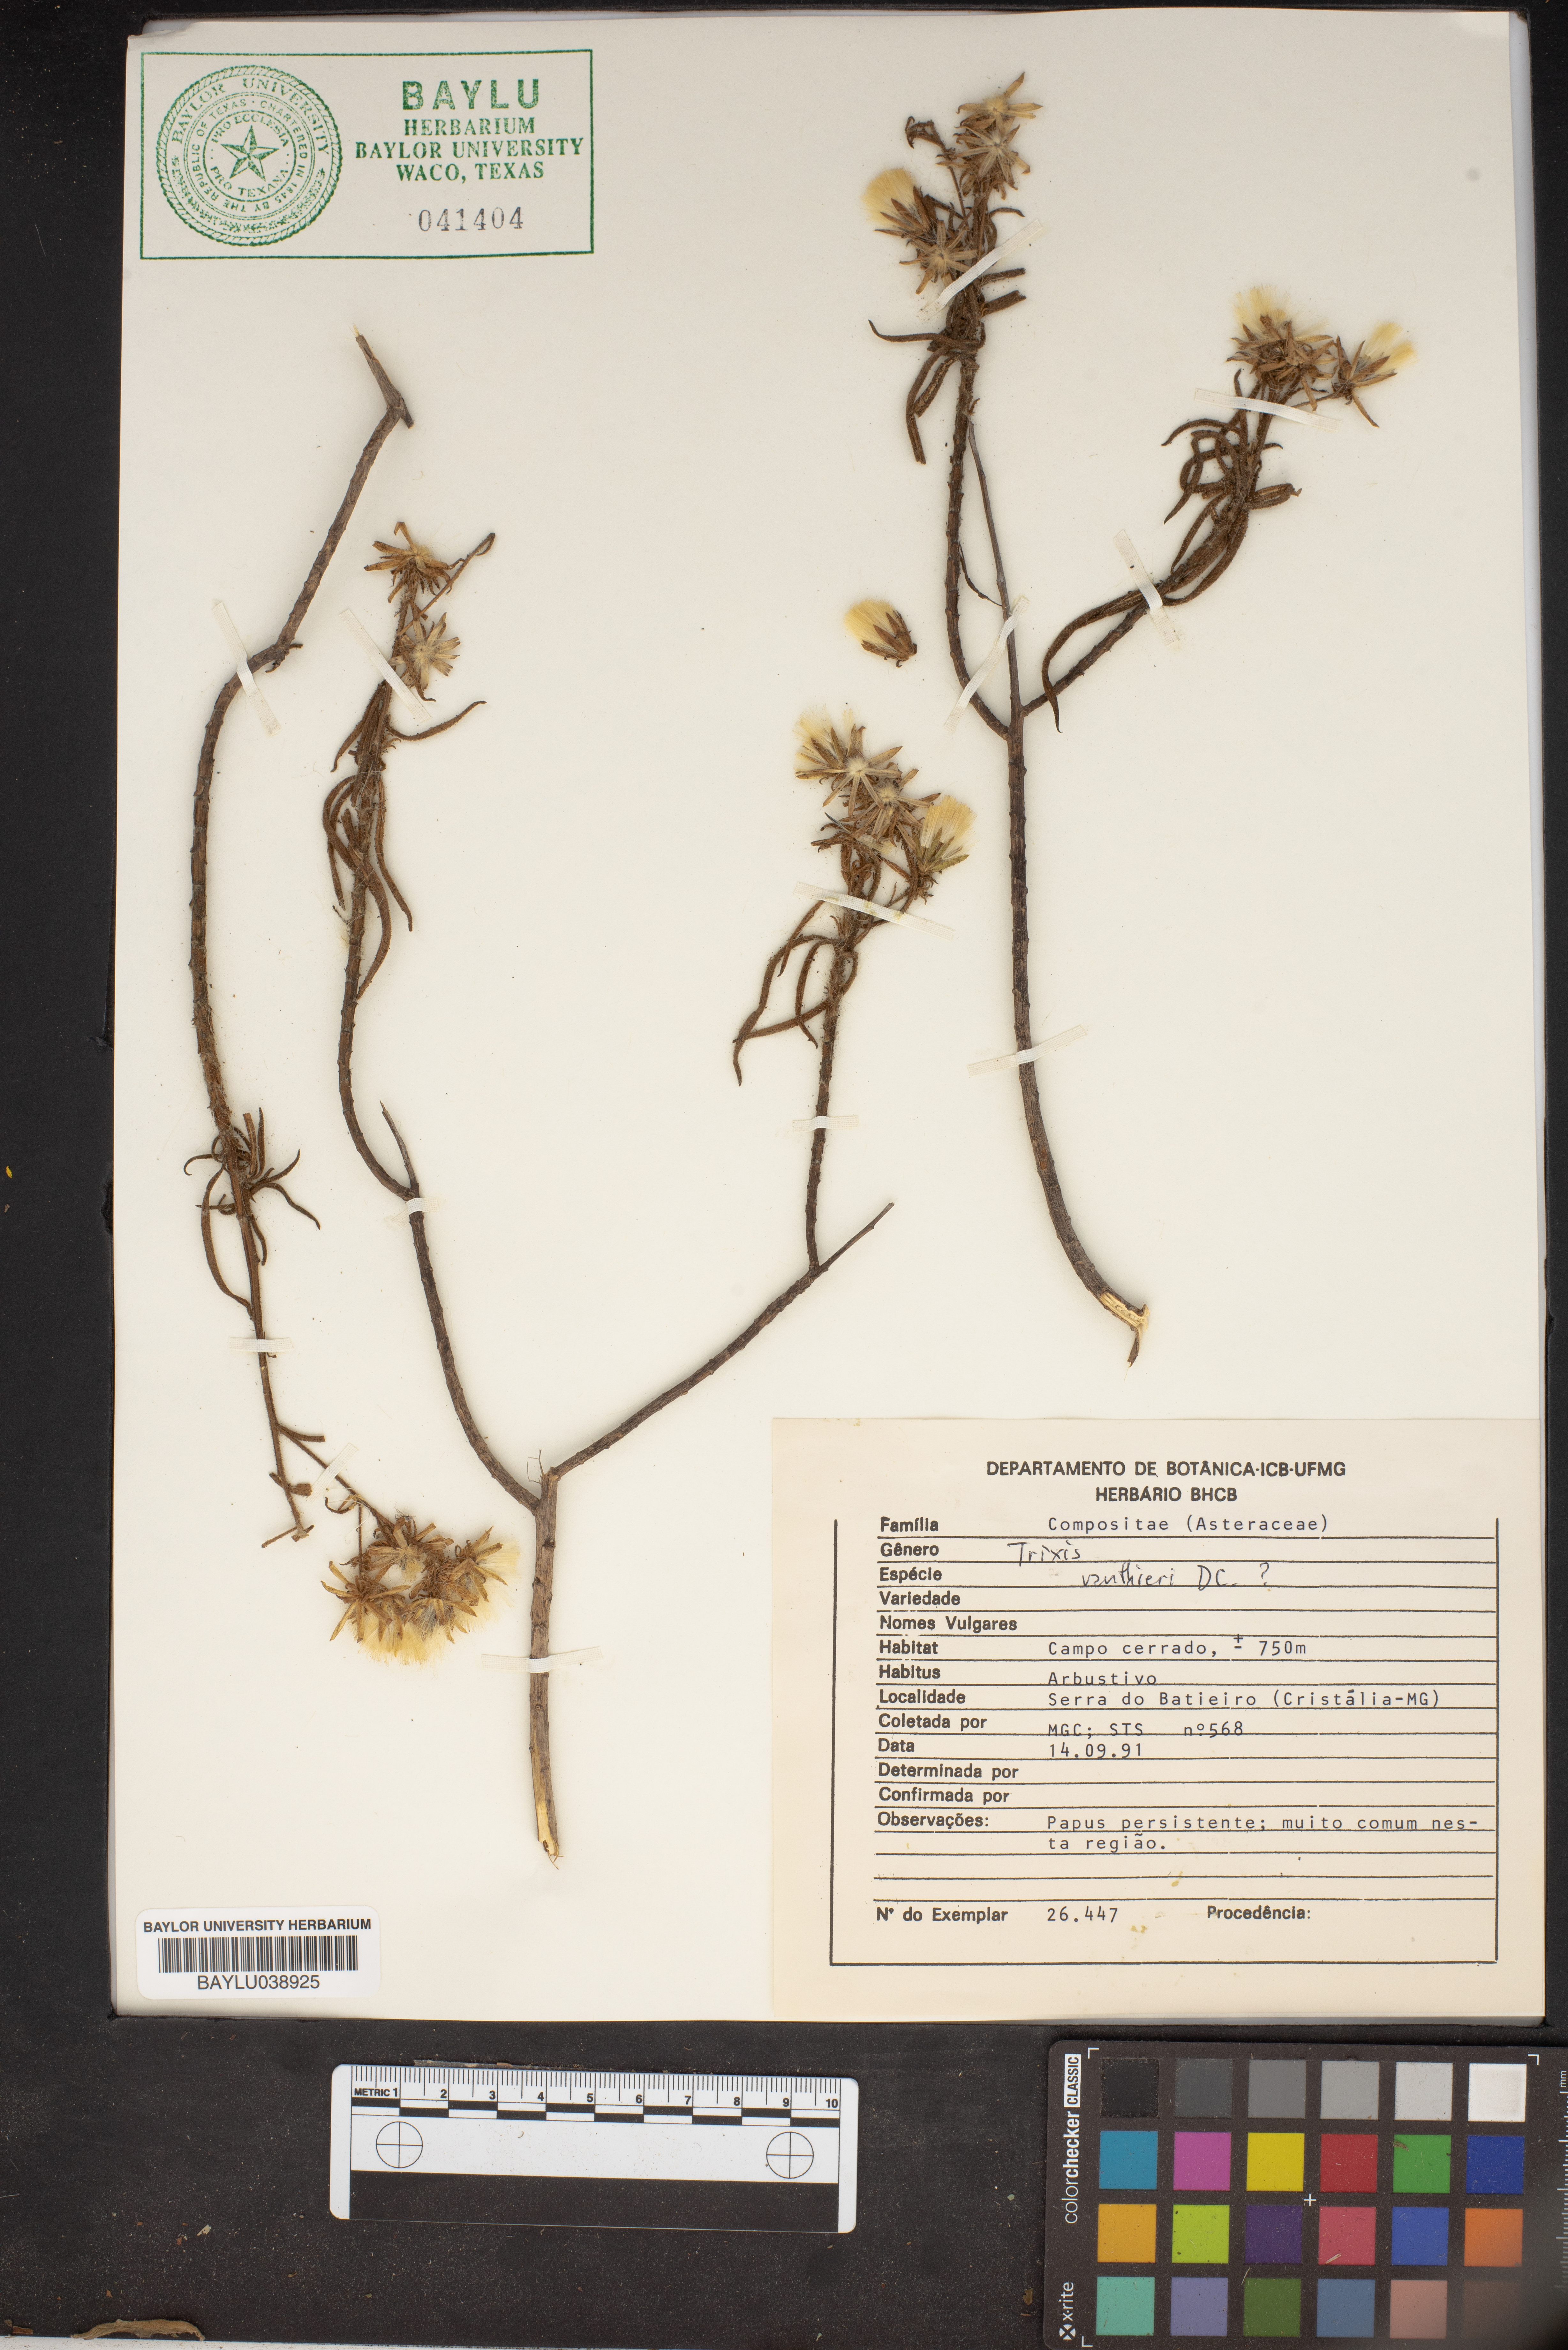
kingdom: Plantae
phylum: Tracheophyta
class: Magnoliopsida
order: Asterales
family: Asteraceae
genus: Trixis
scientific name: Trixis vauthieri
